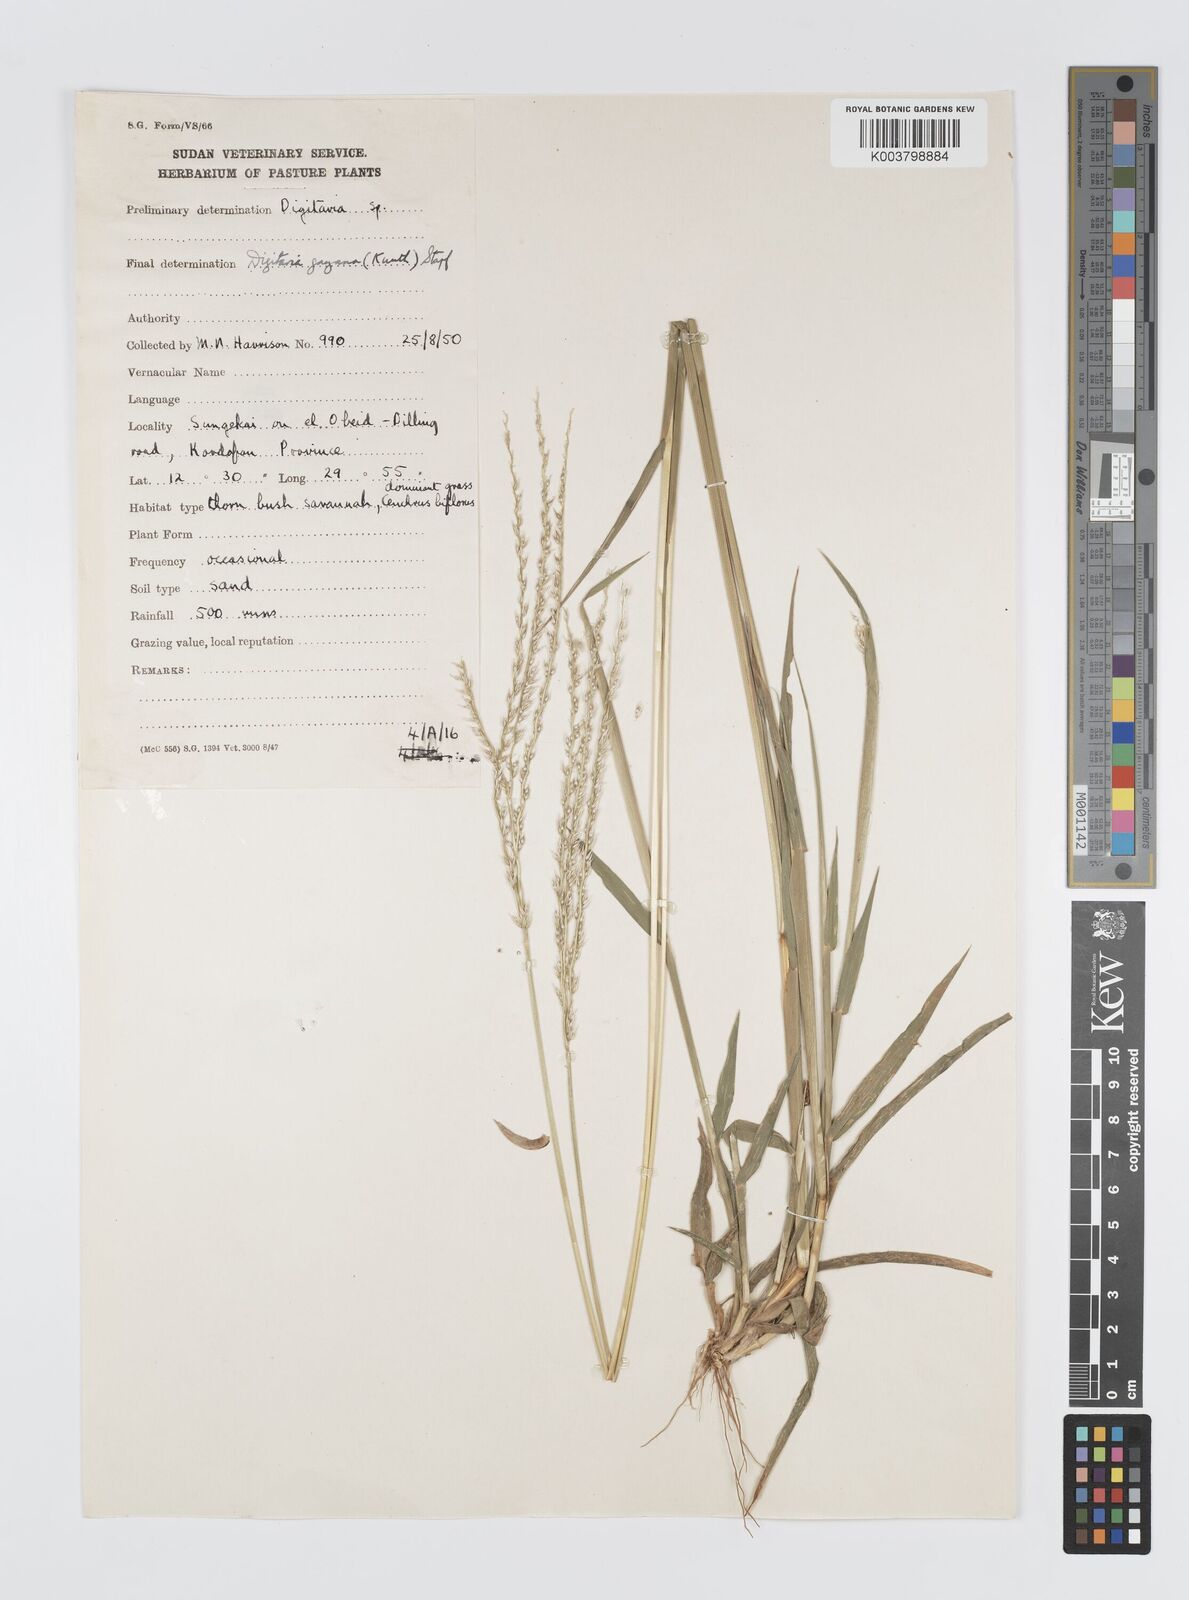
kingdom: Plantae
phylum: Tracheophyta
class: Liliopsida
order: Poales
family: Poaceae
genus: Digitaria
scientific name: Digitaria gayana
